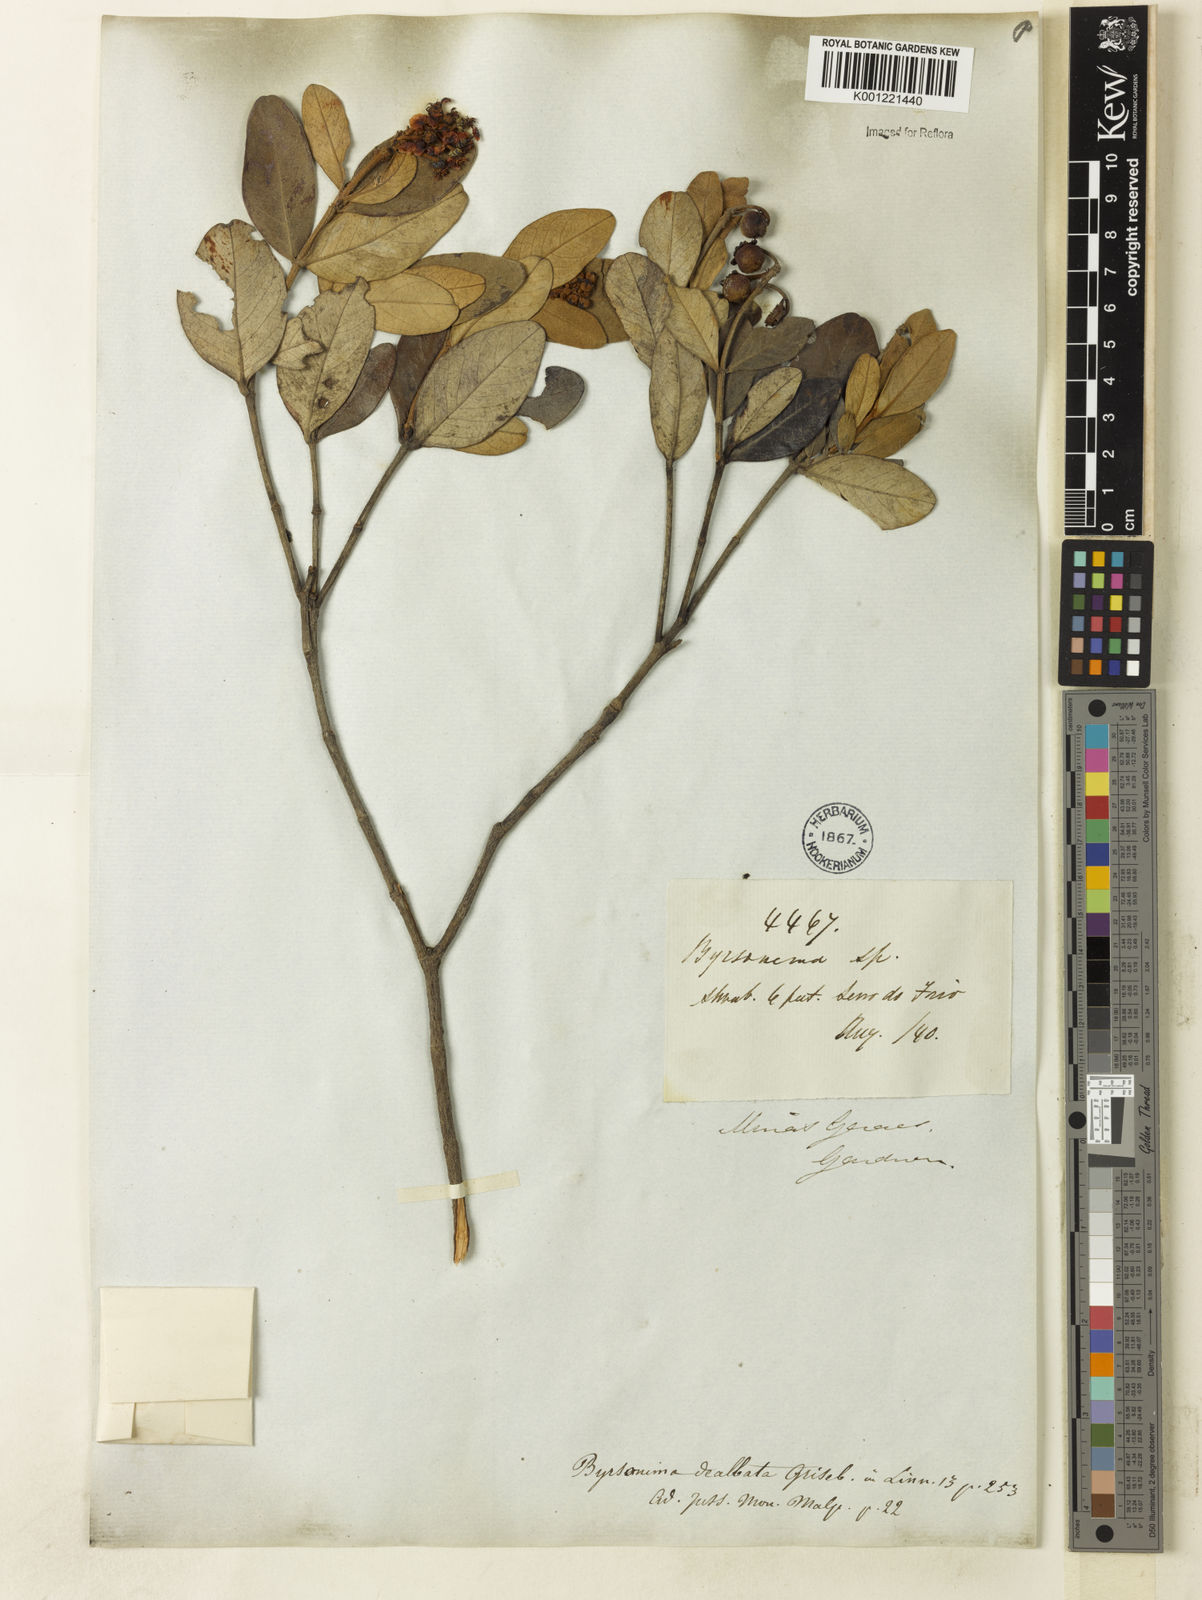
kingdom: Plantae
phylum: Tracheophyta
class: Magnoliopsida
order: Malpighiales
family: Malpighiaceae
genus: Byrsonima
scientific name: Byrsonima dealbata
